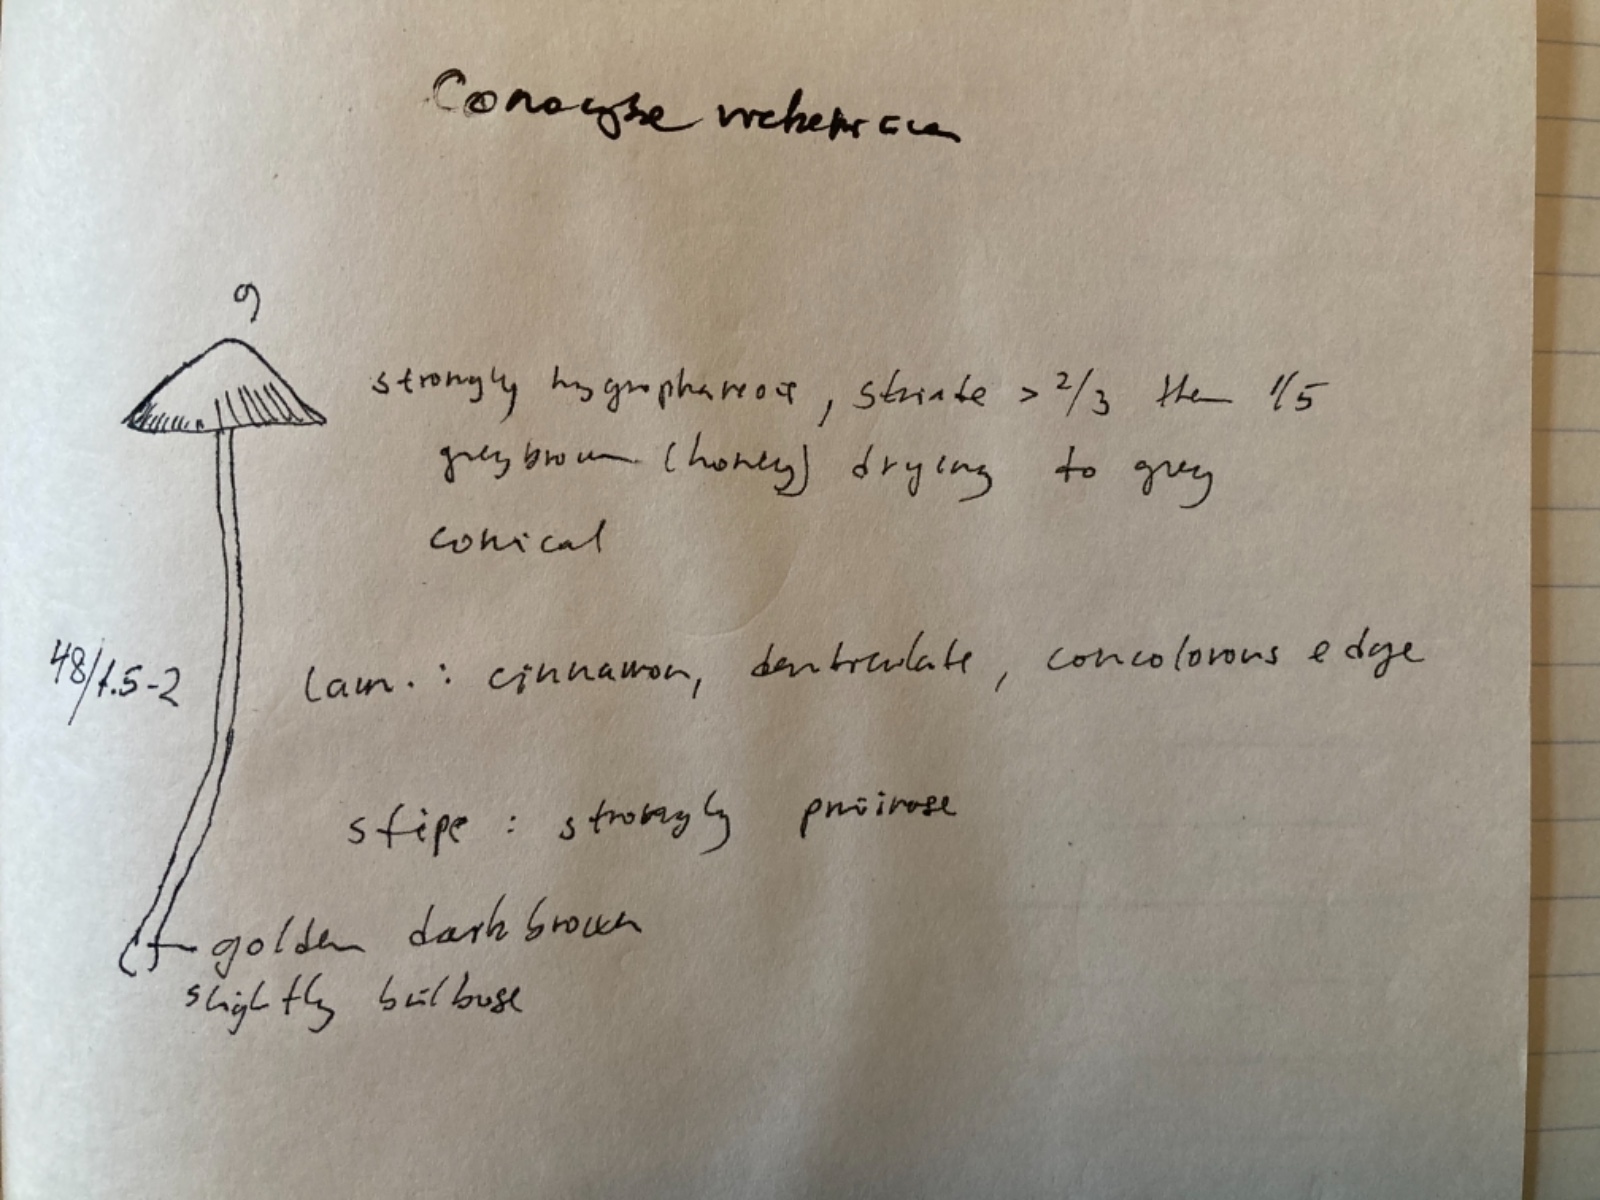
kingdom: Fungi
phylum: Basidiomycota
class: Agaricomycetes
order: Agaricales
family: Bolbitiaceae
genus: Conocybe
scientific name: Conocybe rickeniana
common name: kastaniebrun keglehat
